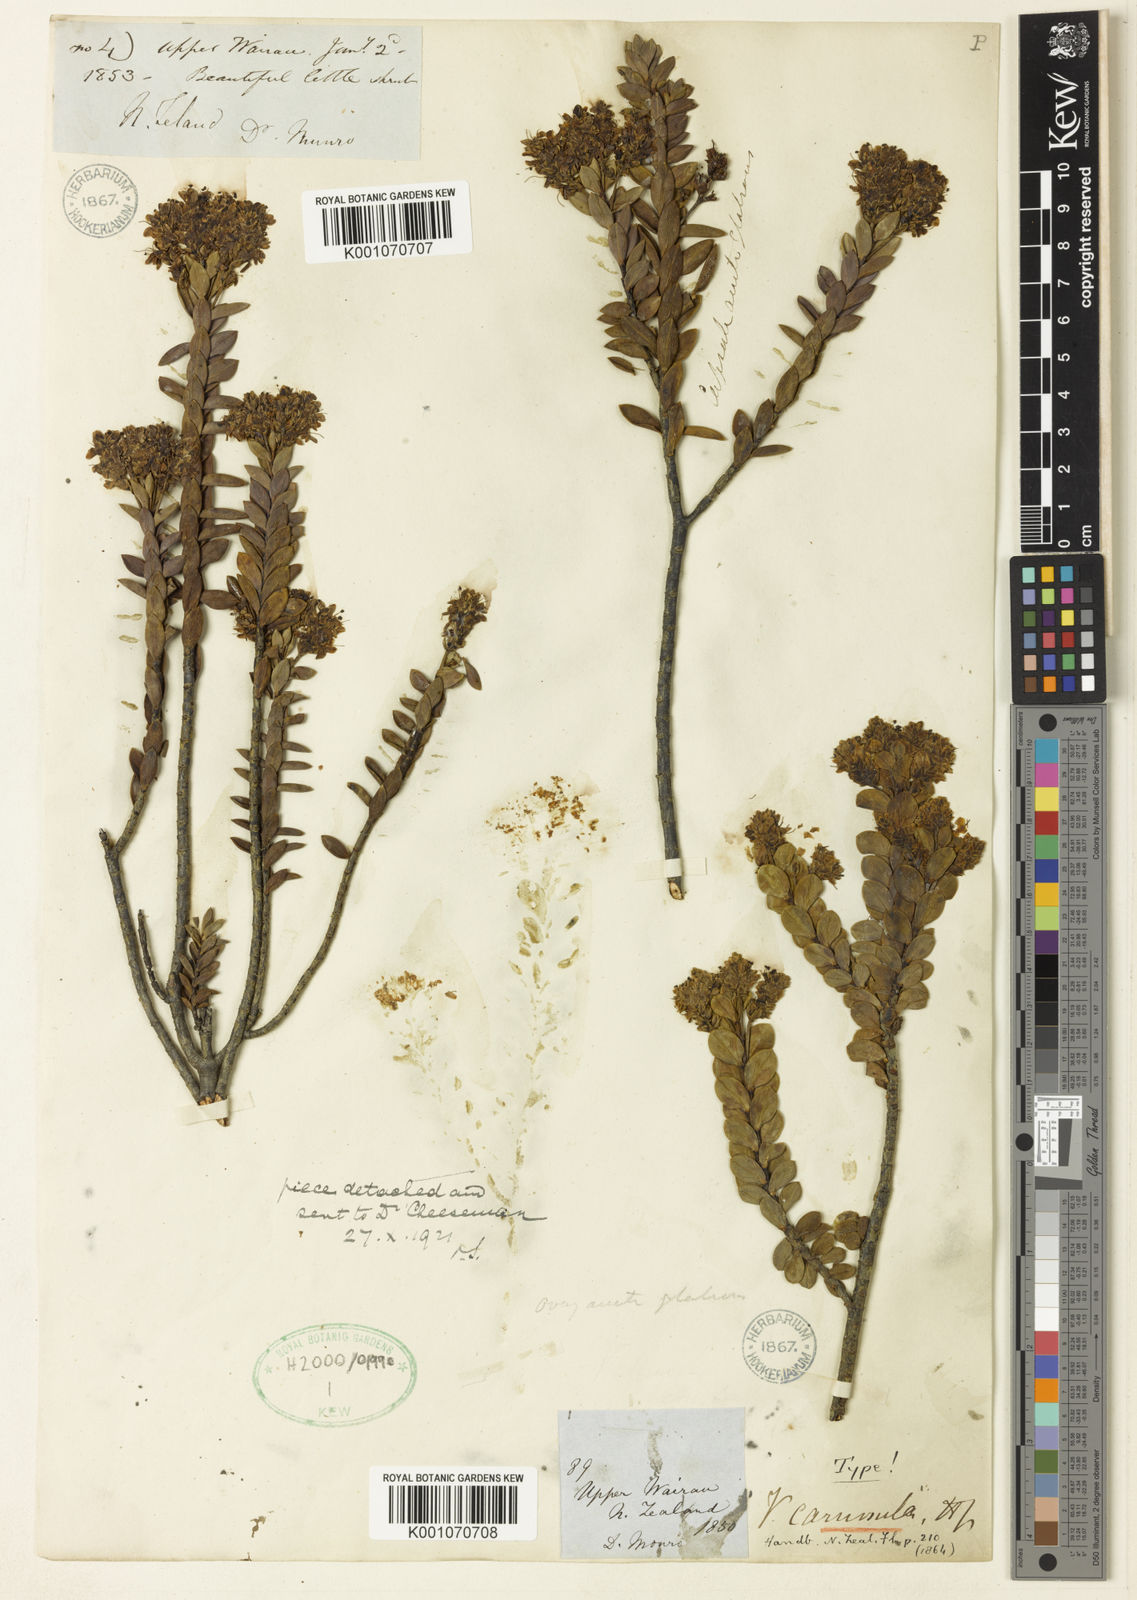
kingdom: Plantae
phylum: Tracheophyta
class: Magnoliopsida
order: Lamiales
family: Plantaginaceae
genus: Veronica
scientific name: Veronica baylyi
